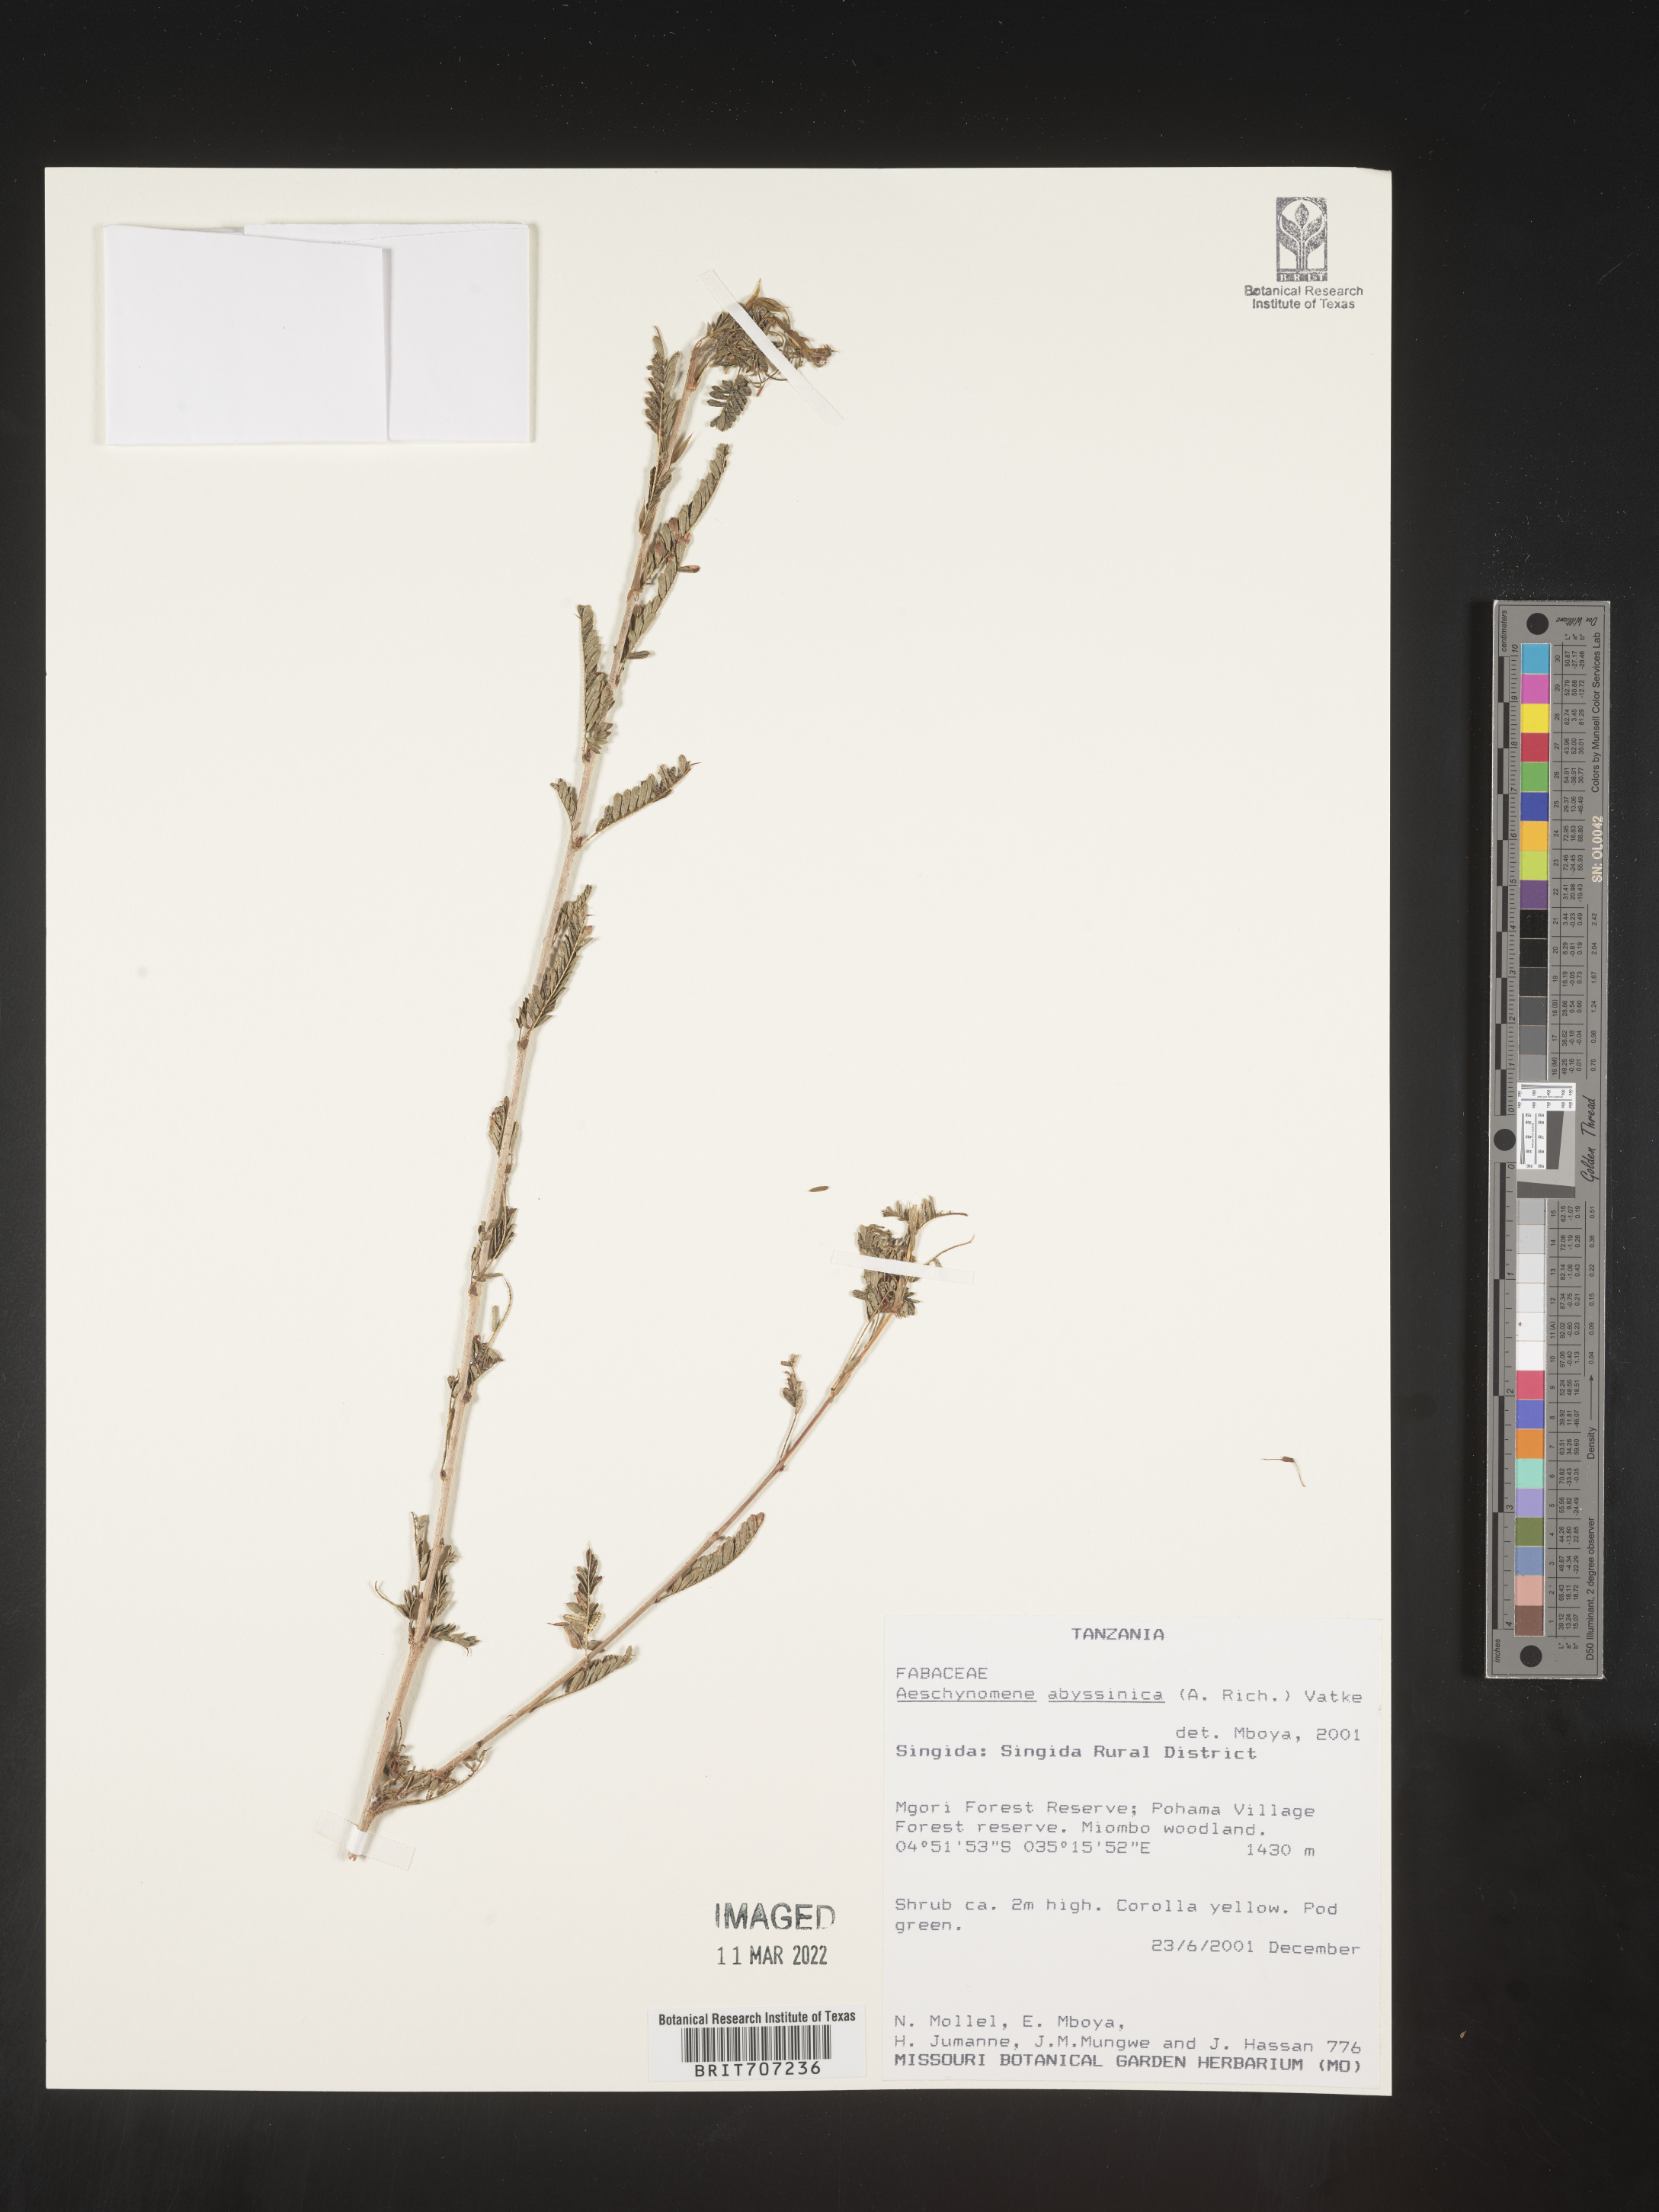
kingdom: Plantae
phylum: Tracheophyta
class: Magnoliopsida
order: Fabales
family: Fabaceae
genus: Aeschynomene
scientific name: Aeschynomene
